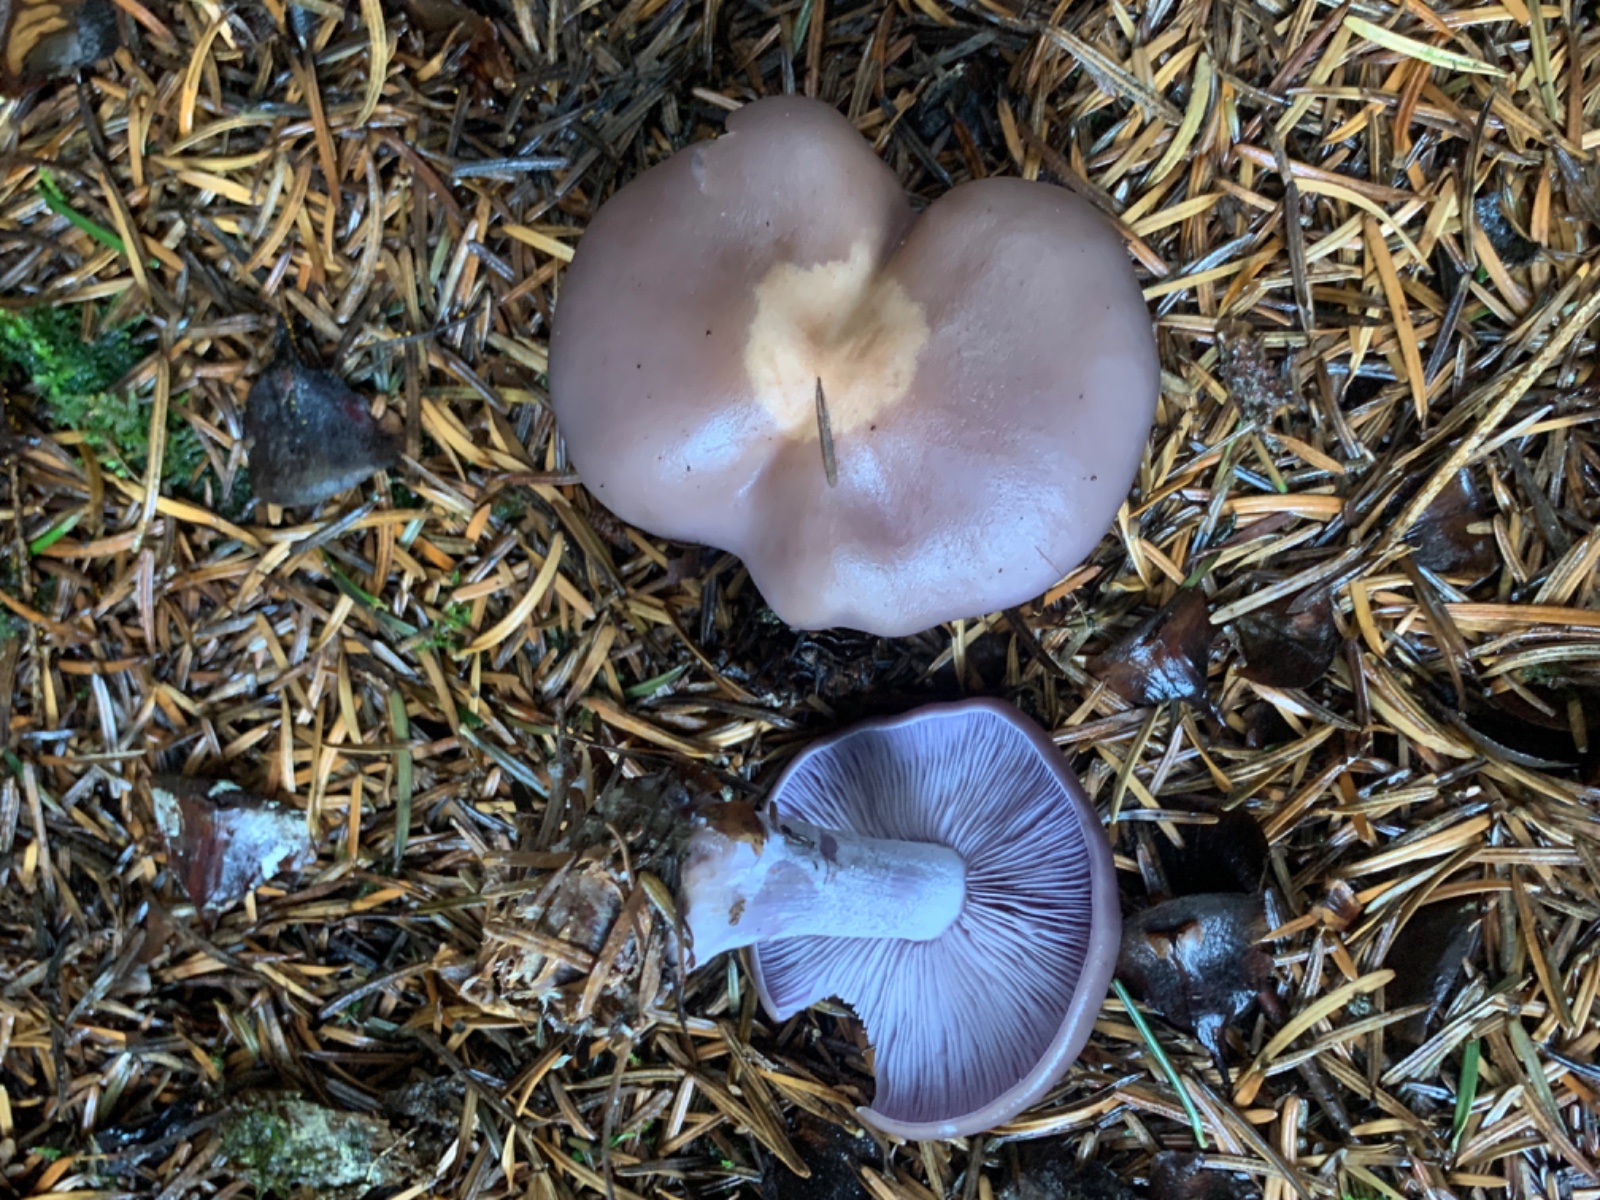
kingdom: Fungi
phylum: Basidiomycota
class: Agaricomycetes
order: Agaricales
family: Tricholomataceae
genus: Lepista
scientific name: Lepista nuda
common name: violet hekseringshat
